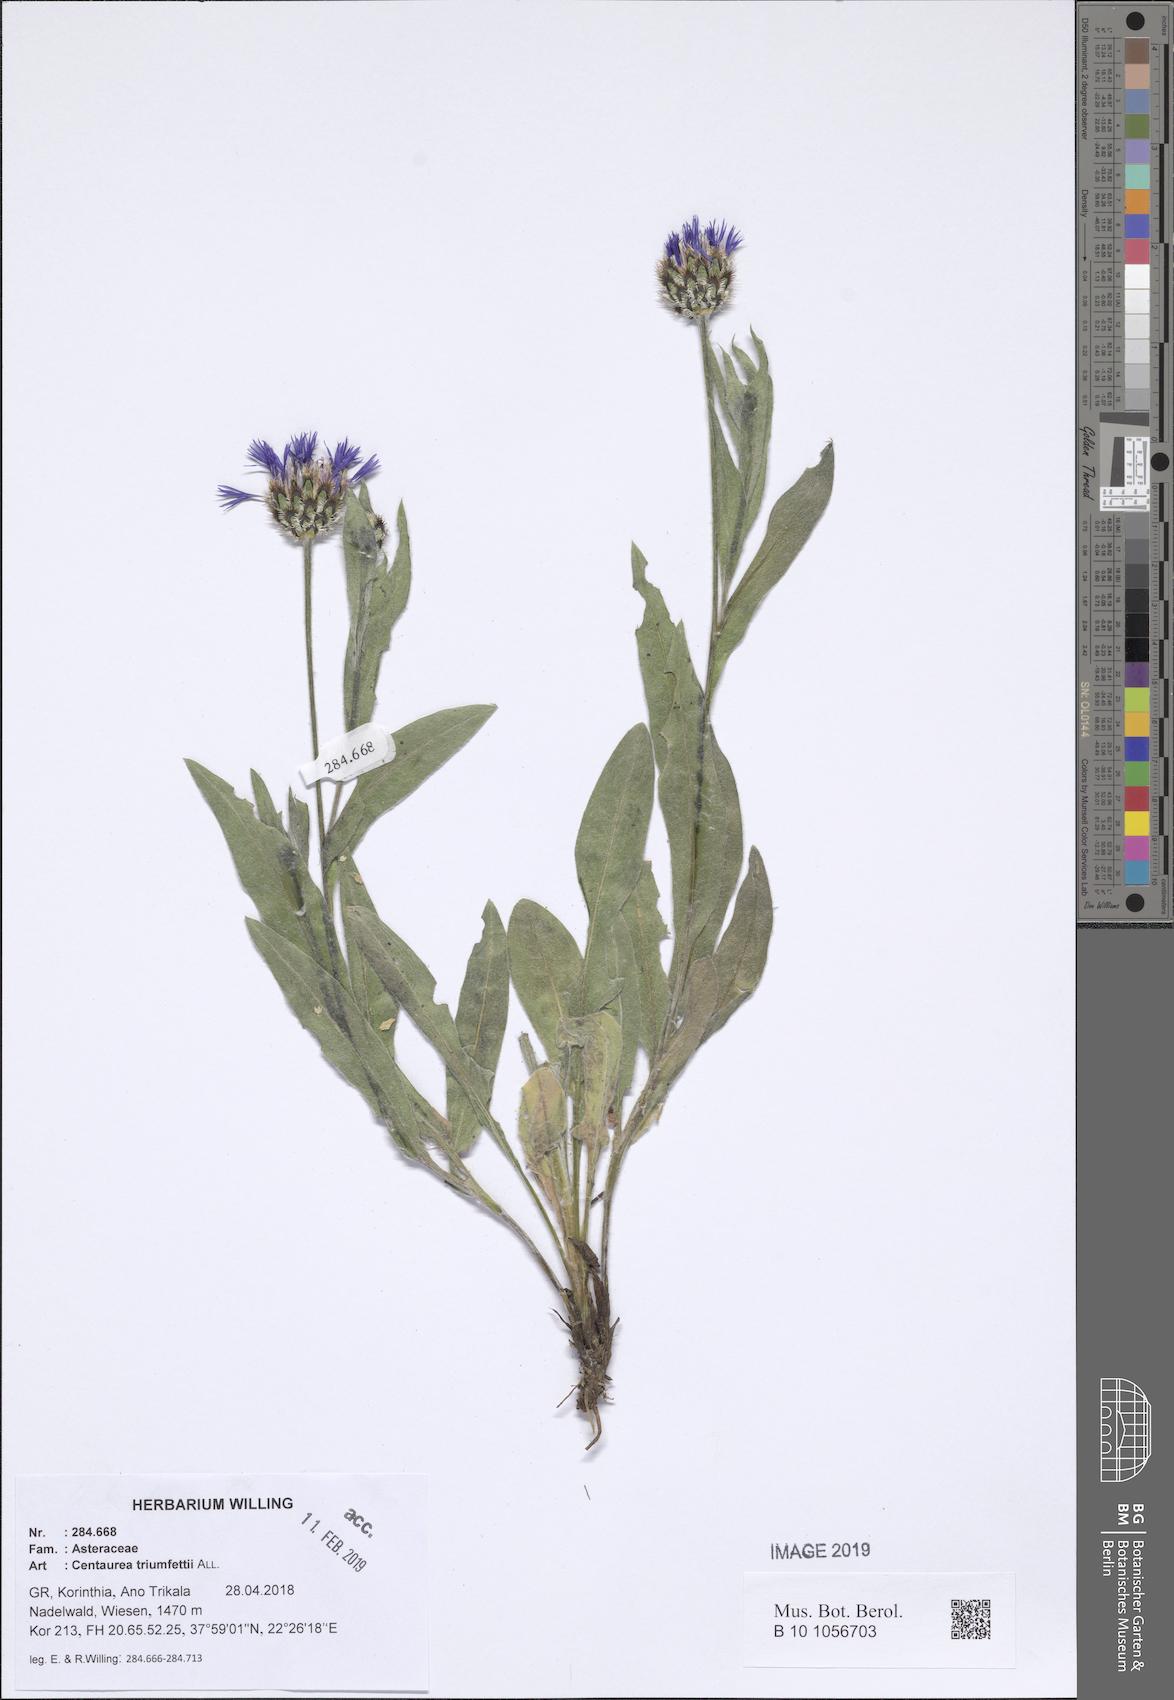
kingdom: Plantae
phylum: Tracheophyta
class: Magnoliopsida
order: Asterales
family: Asteraceae
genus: Centaurea
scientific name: Centaurea triumfettii
